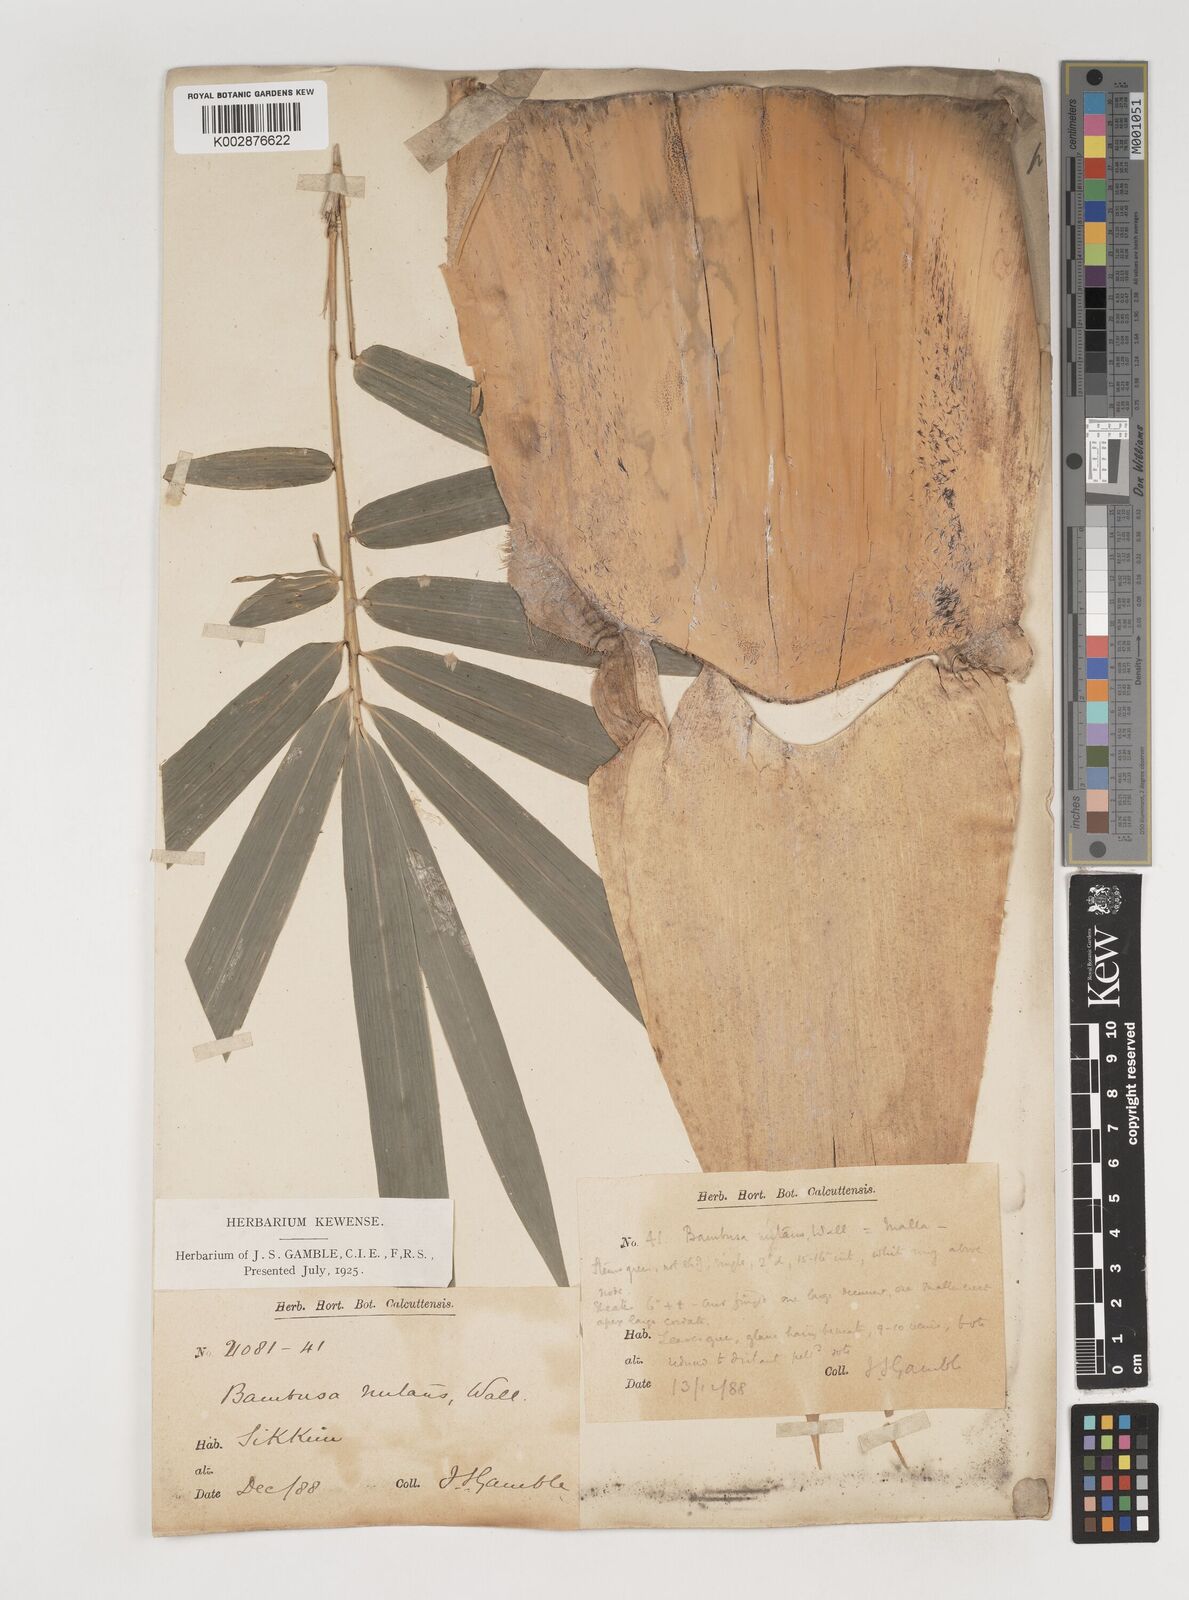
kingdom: Plantae
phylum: Tracheophyta
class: Liliopsida
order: Poales
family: Poaceae
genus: Bambusa
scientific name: Bambusa nutans
